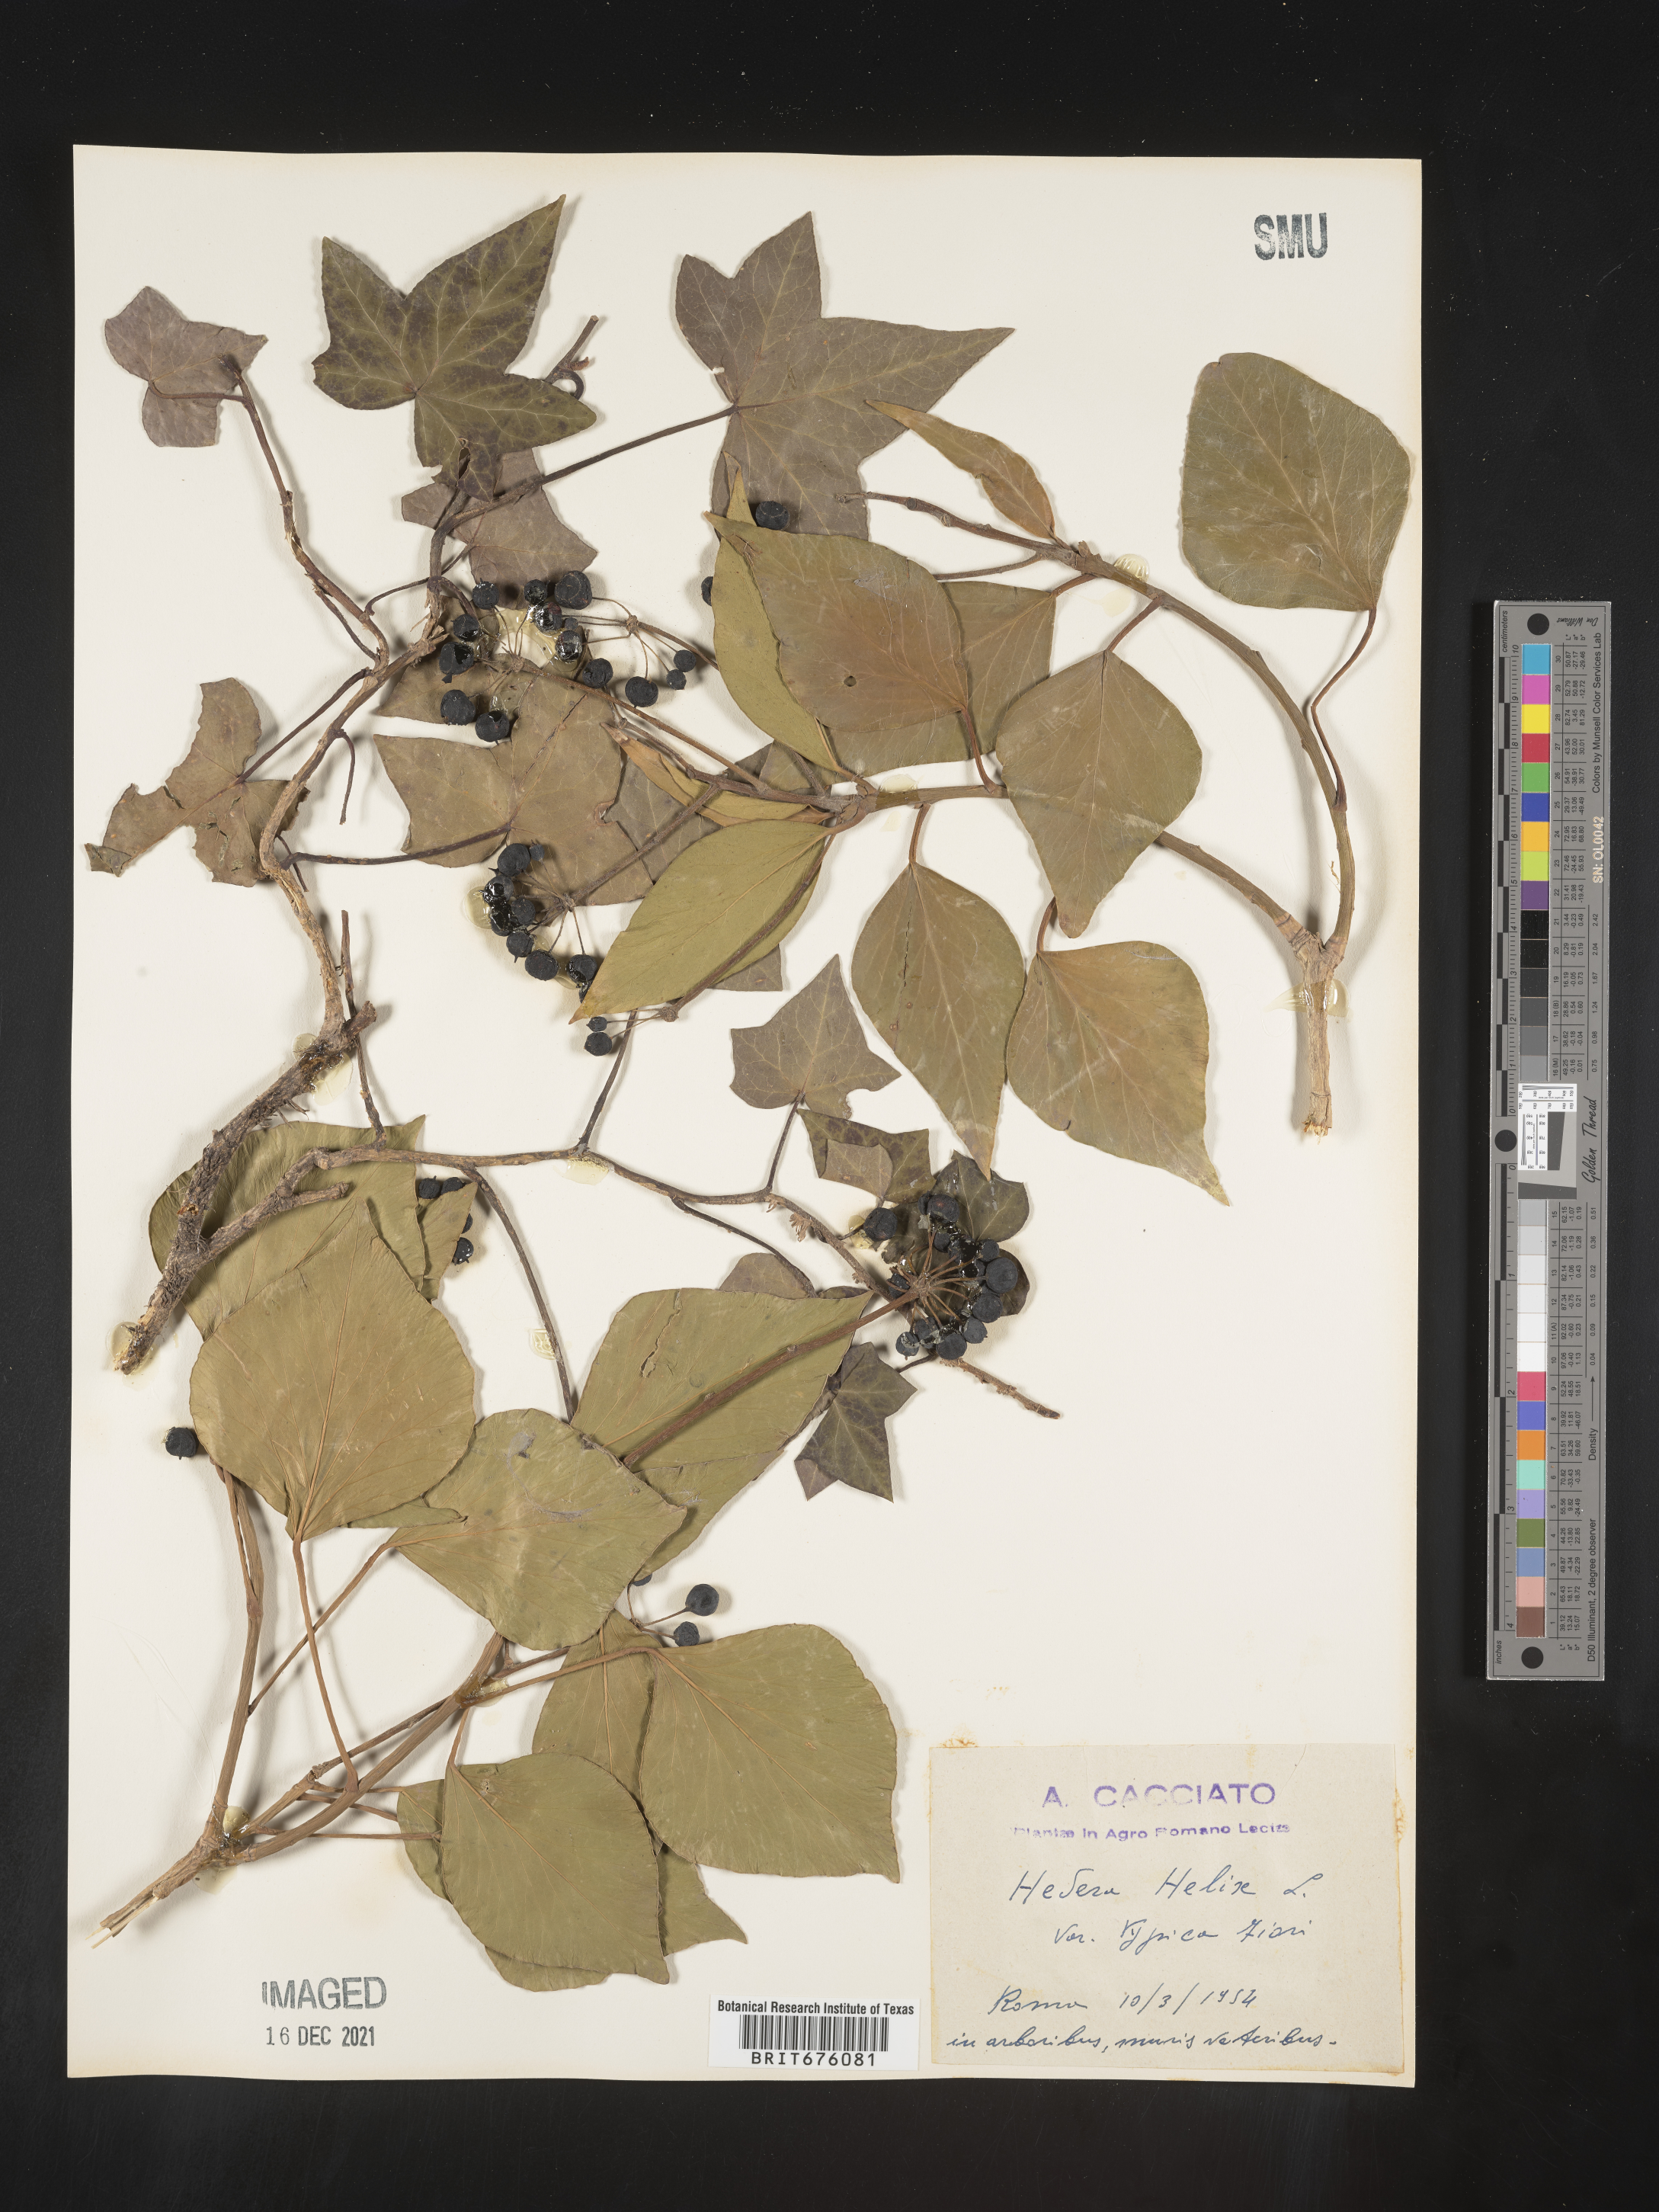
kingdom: Plantae
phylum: Tracheophyta
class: Magnoliopsida
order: Apiales
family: Araliaceae
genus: Hedera
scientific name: Hedera
